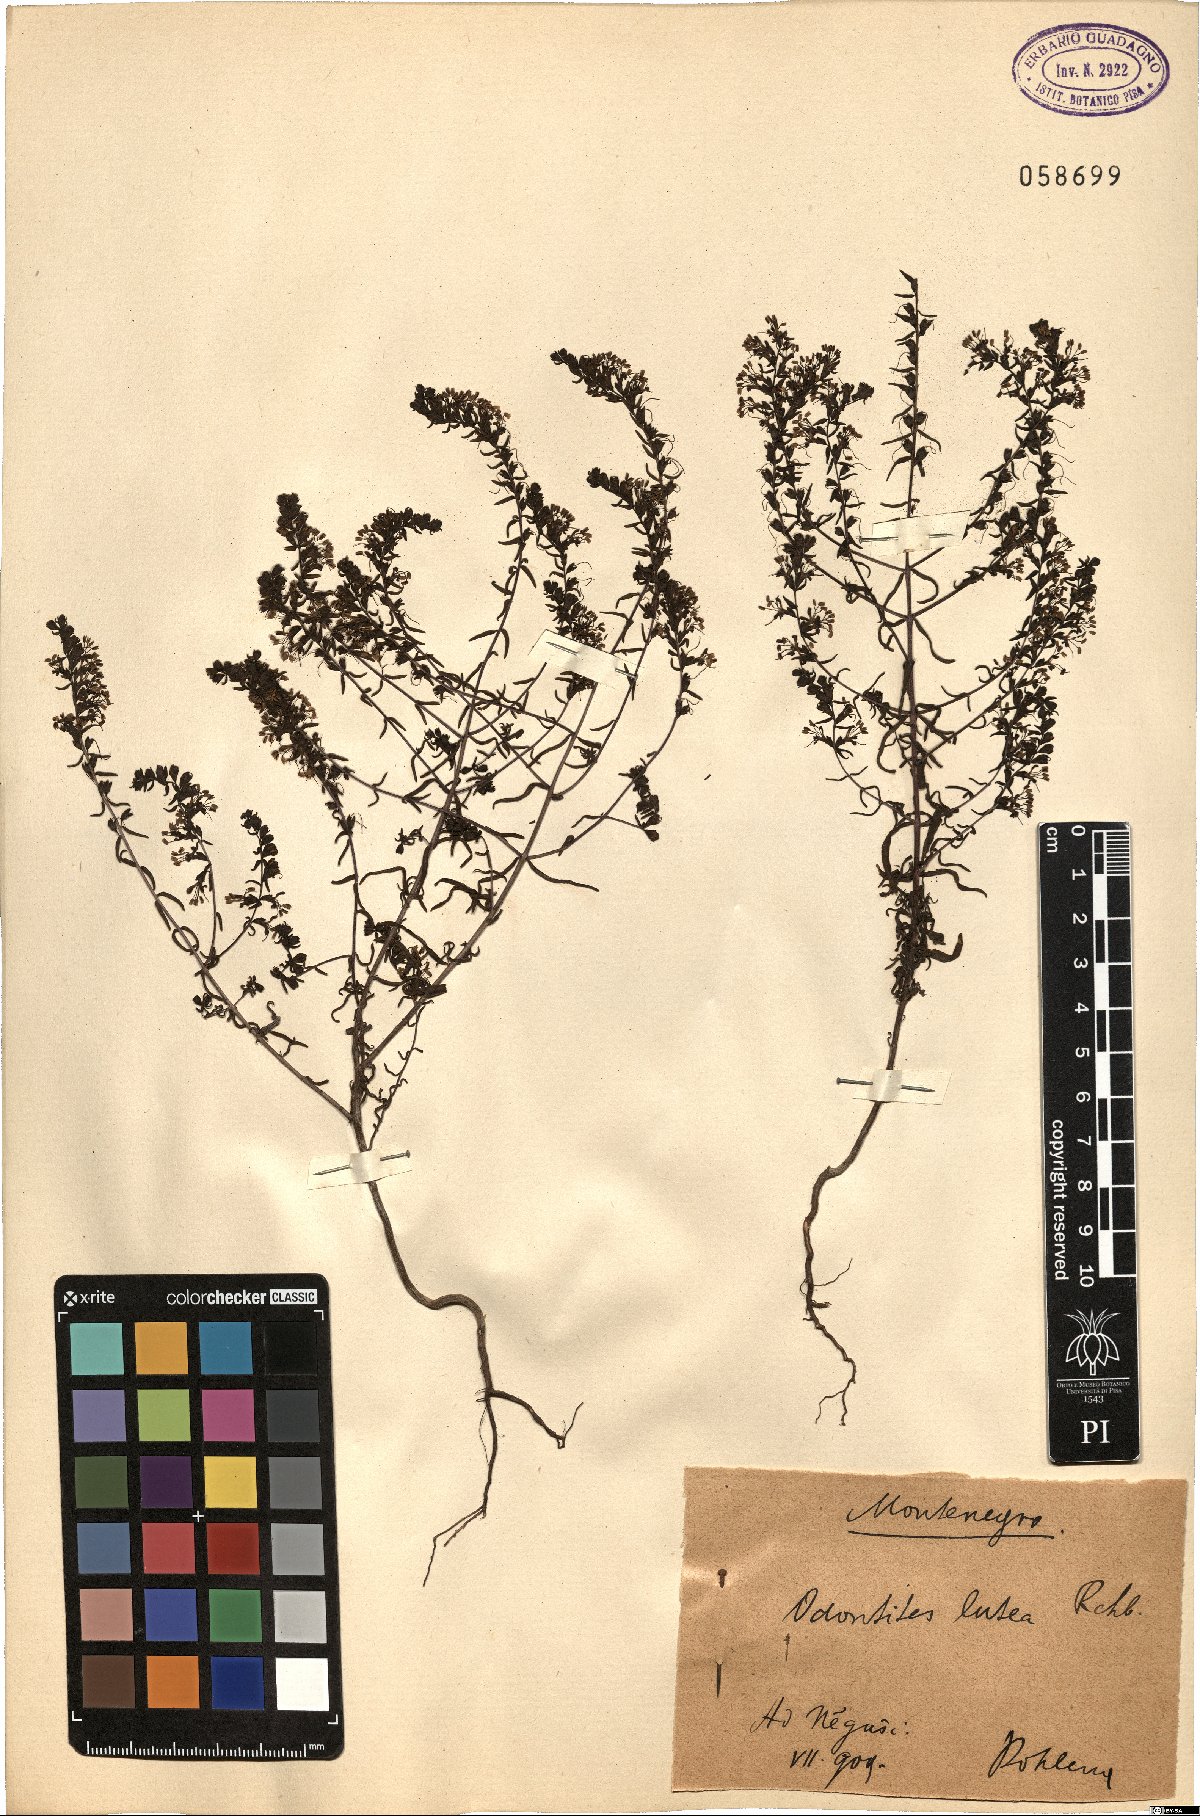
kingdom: Plantae
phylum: Tracheophyta
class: Magnoliopsida
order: Lamiales
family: Orobanchaceae
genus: Odontites
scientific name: Odontites luteus
